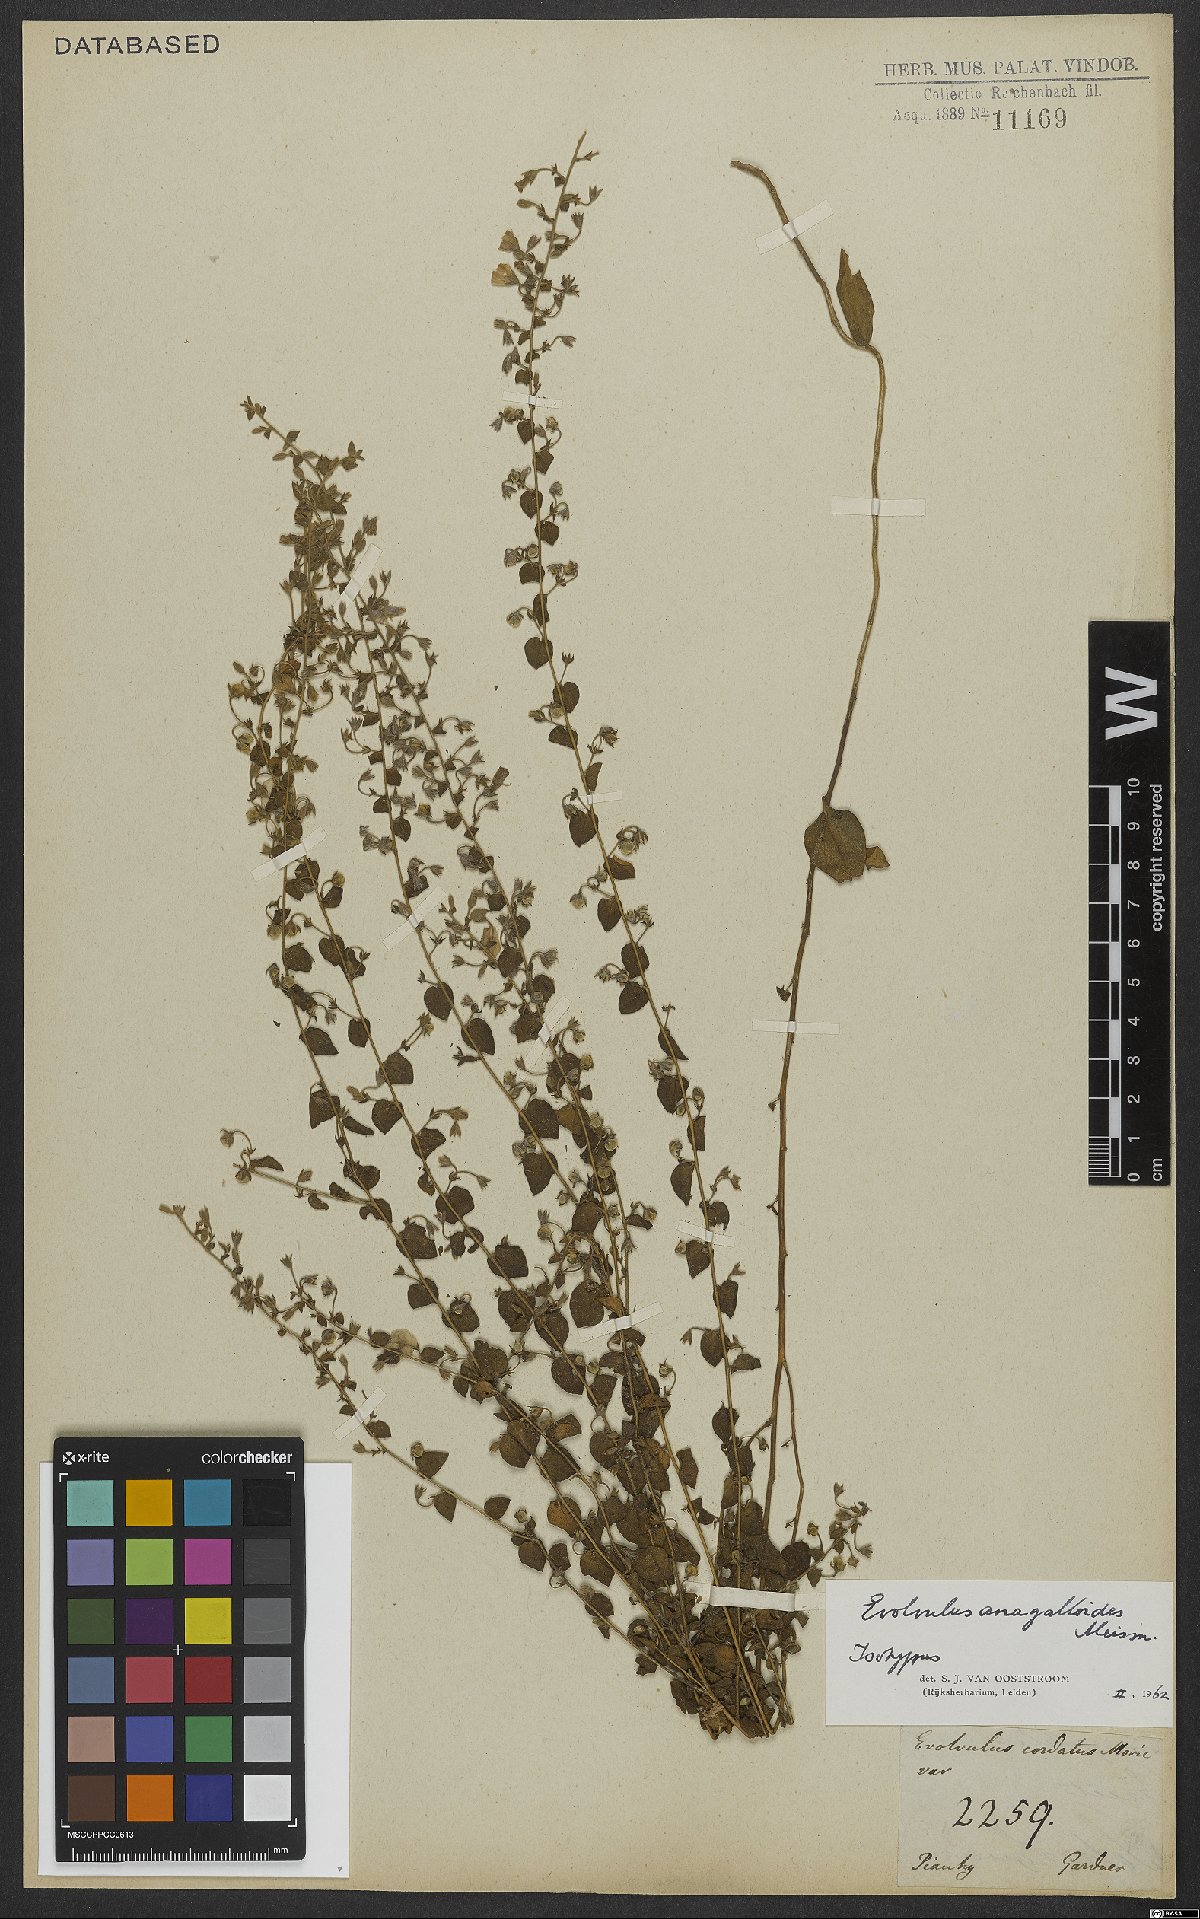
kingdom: Plantae
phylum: Tracheophyta
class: Magnoliopsida
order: Solanales
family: Convolvulaceae
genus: Evolvulus
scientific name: Evolvulus anagalloides
